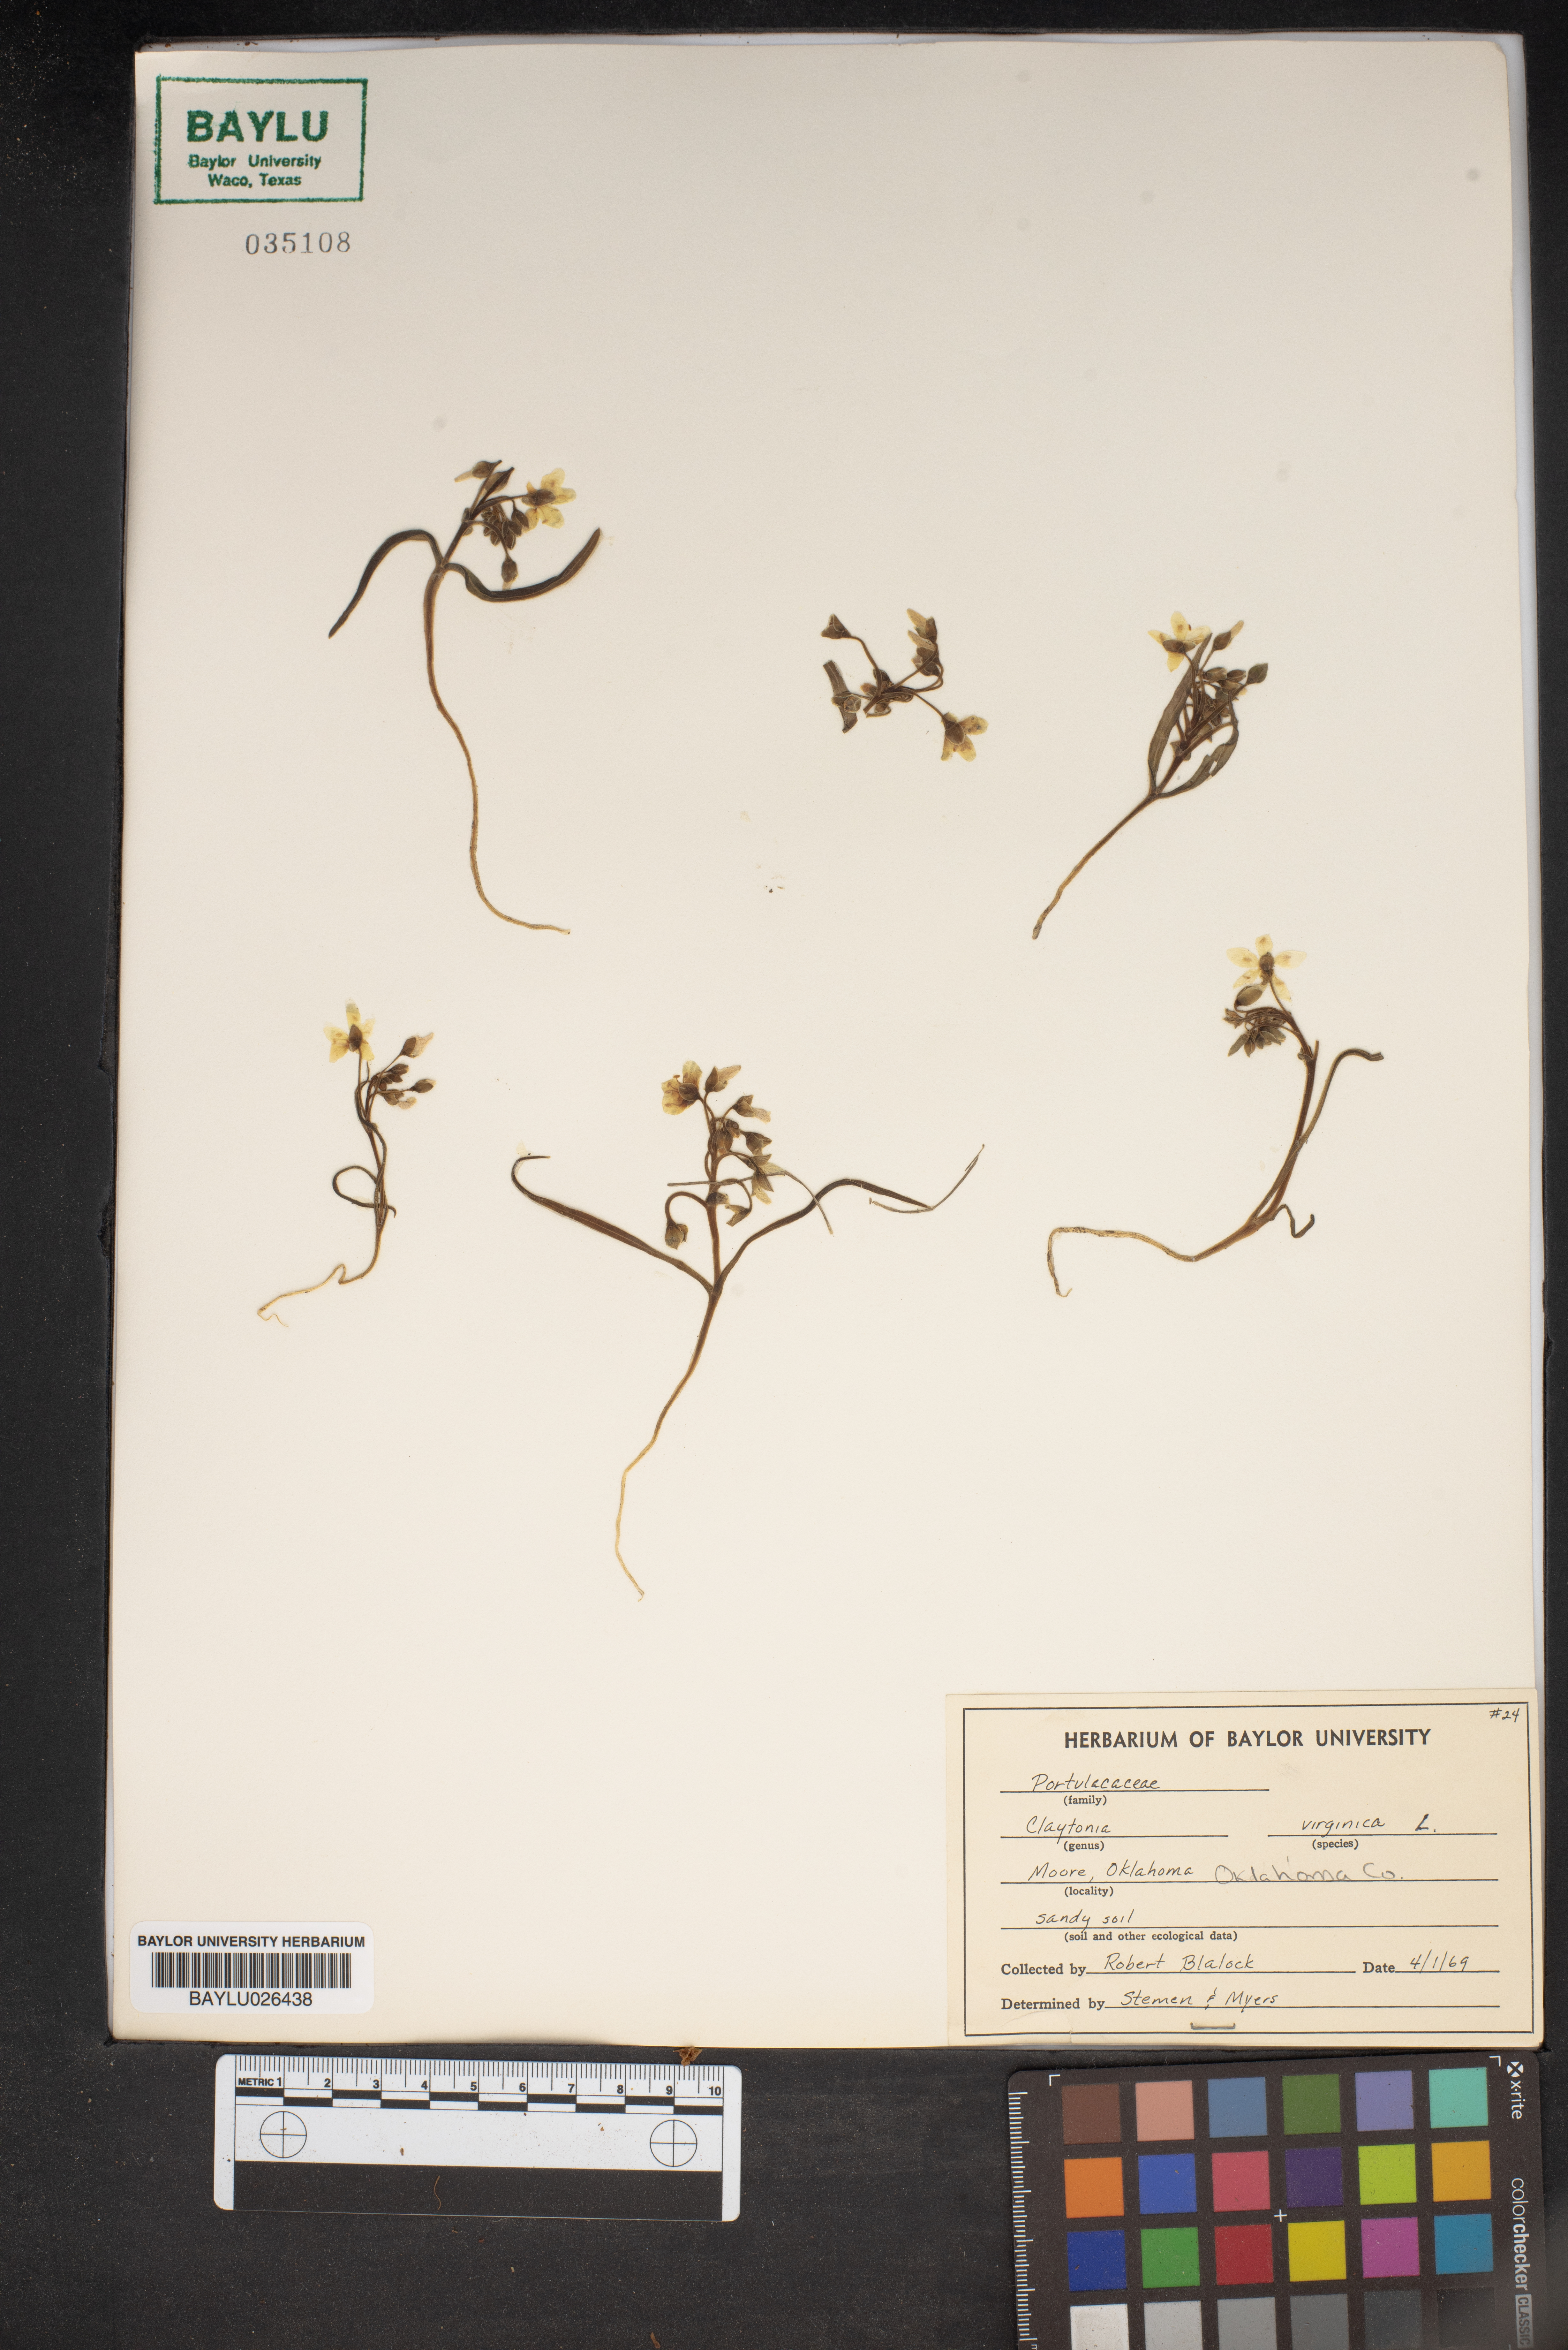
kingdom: Plantae
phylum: Tracheophyta
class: Magnoliopsida
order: Caryophyllales
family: Montiaceae
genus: Claytonia
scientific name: Claytonia virginica
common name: Virginia springbeauty
